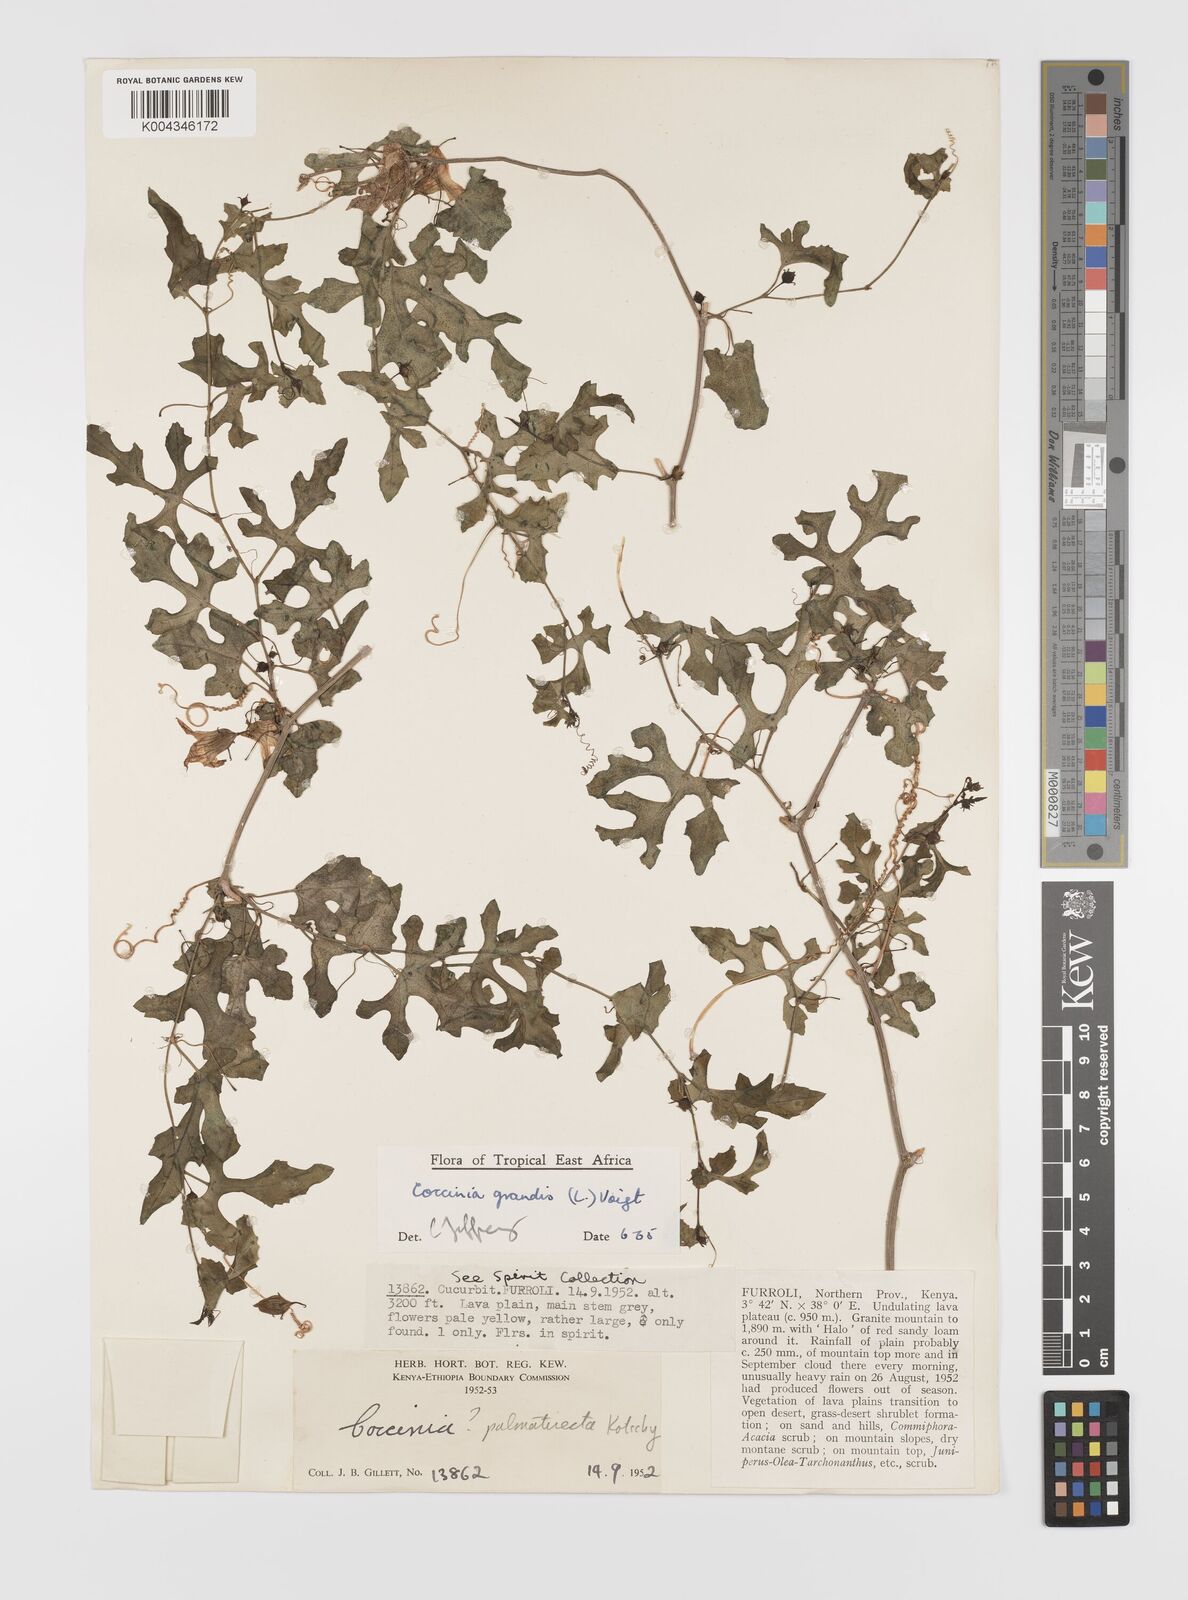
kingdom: Plantae
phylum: Tracheophyta
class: Magnoliopsida
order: Cucurbitales
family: Cucurbitaceae
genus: Coccinia
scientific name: Coccinia grandis
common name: Ivy gourd
